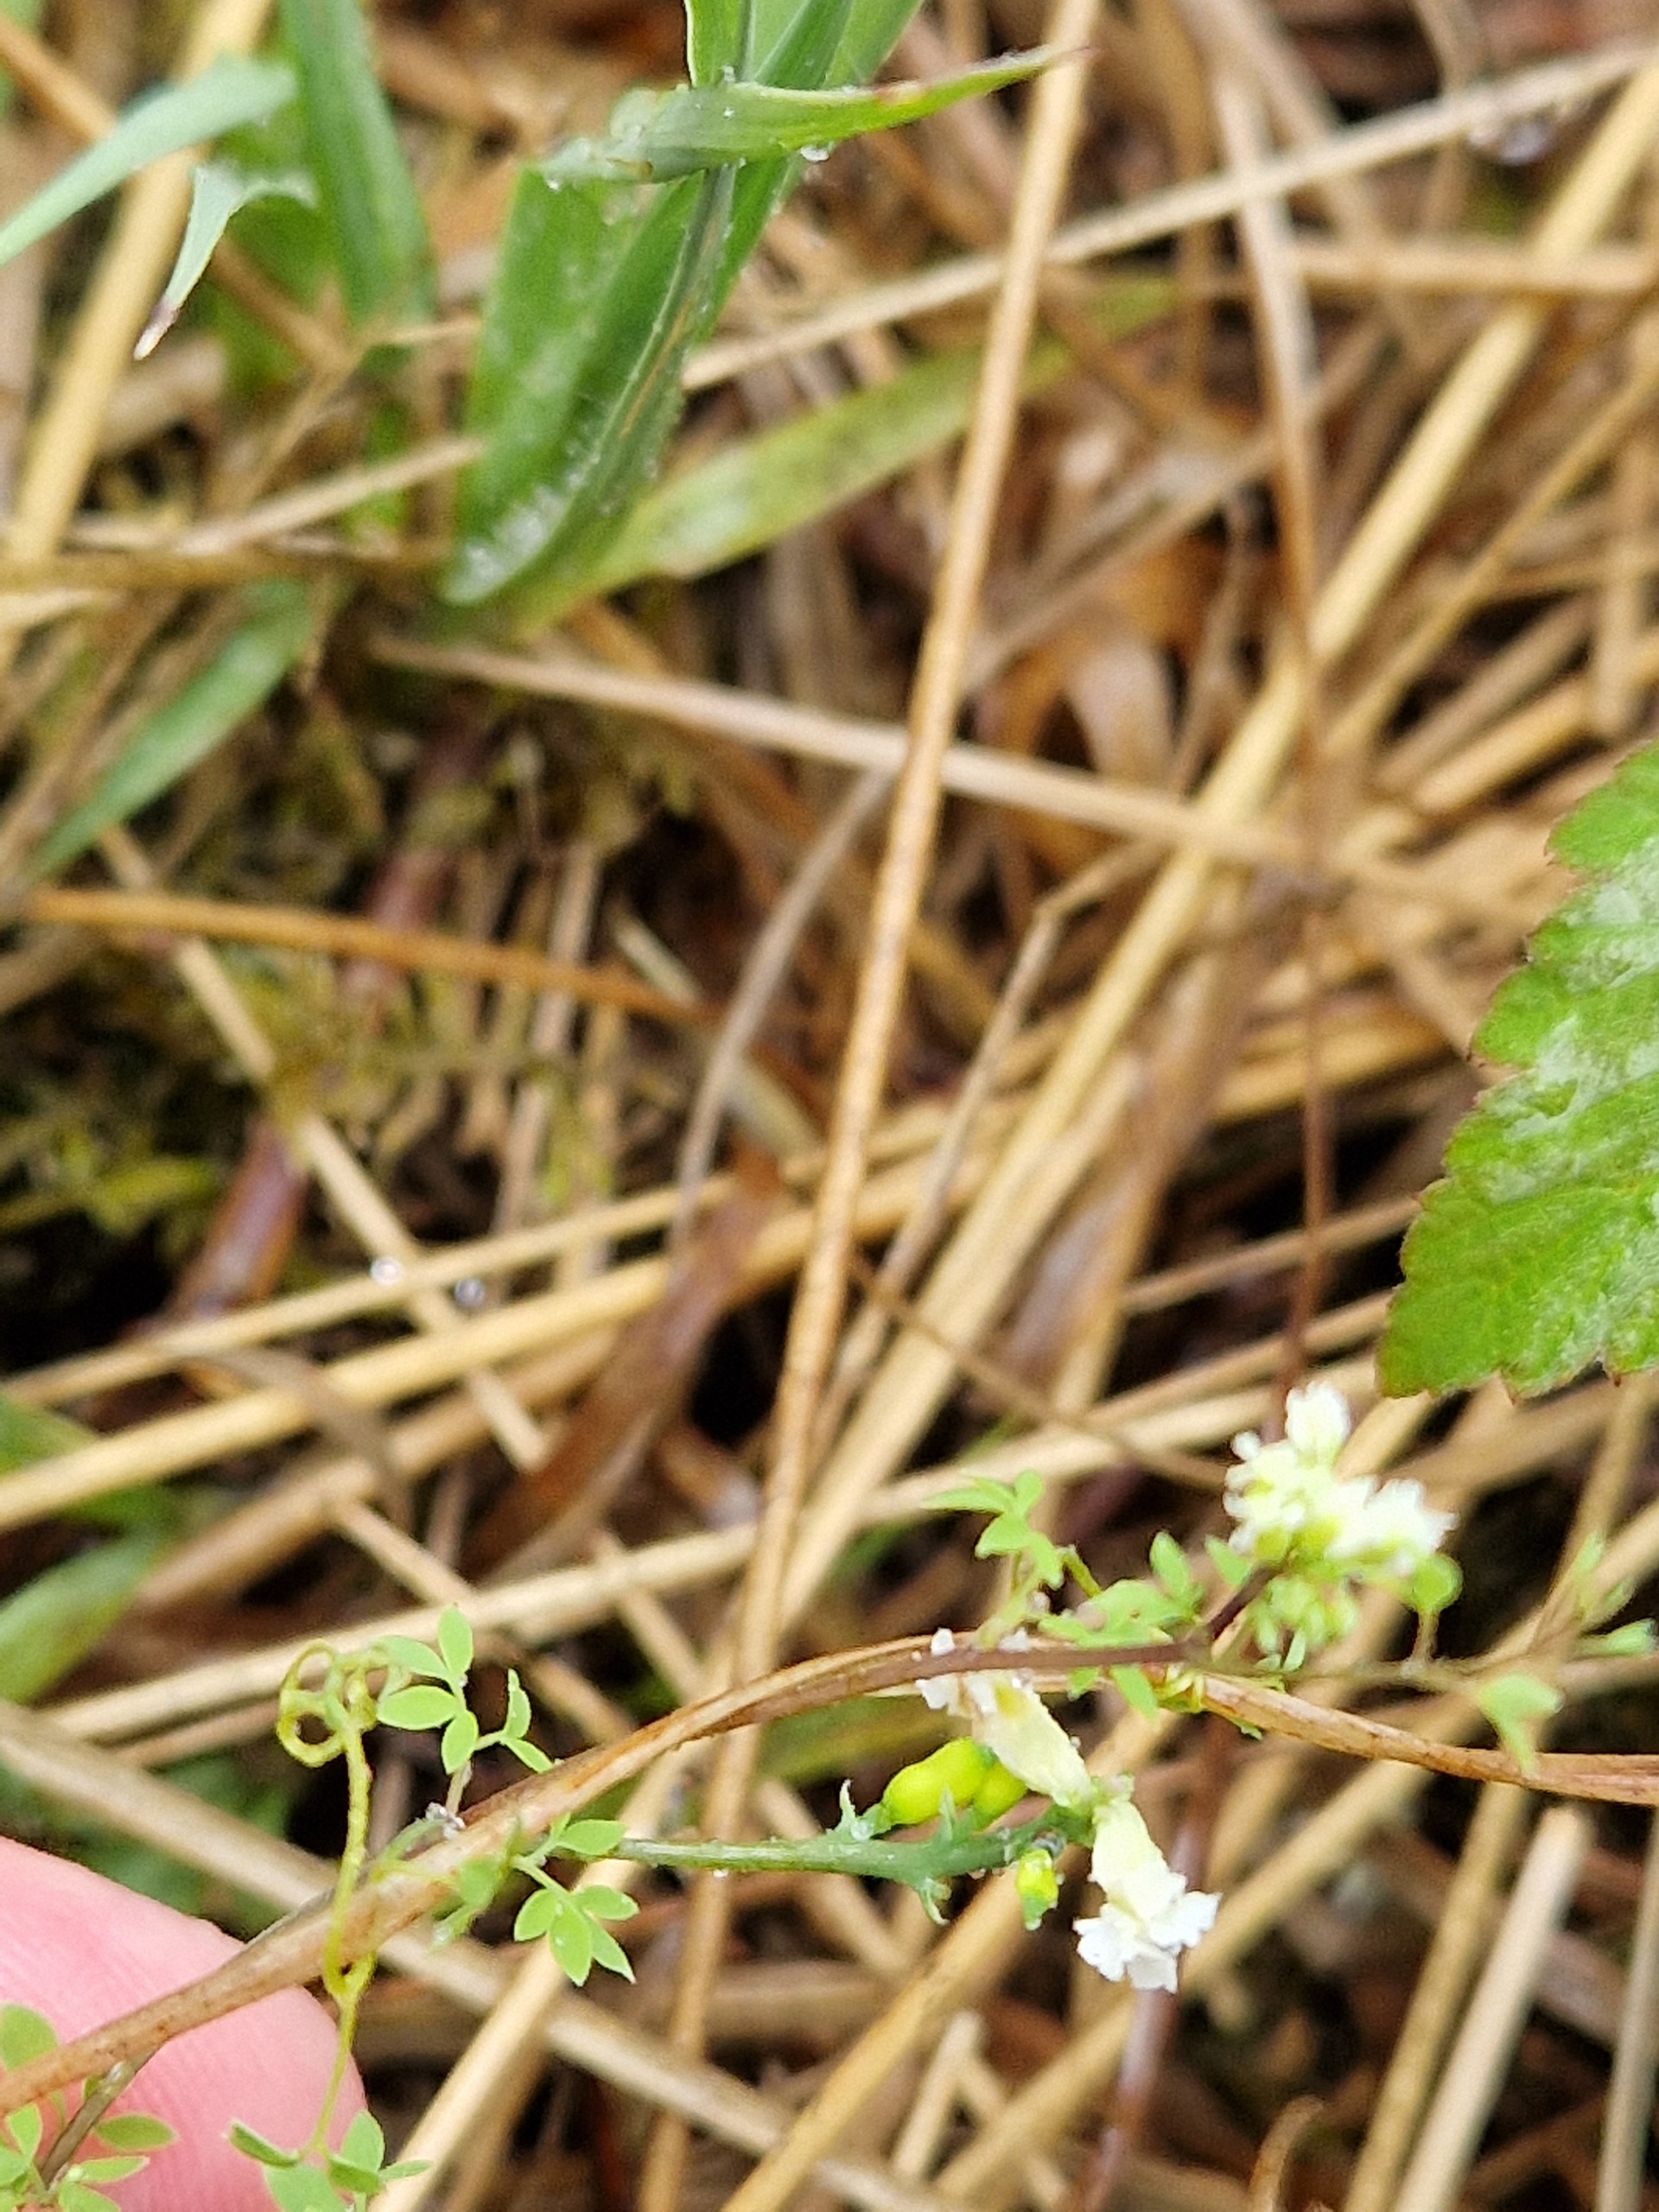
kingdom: Plantae
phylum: Tracheophyta
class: Magnoliopsida
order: Ranunculales
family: Papaveraceae
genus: Ceratocapnos
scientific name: Ceratocapnos claviculata
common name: Klatrende lærkespore
